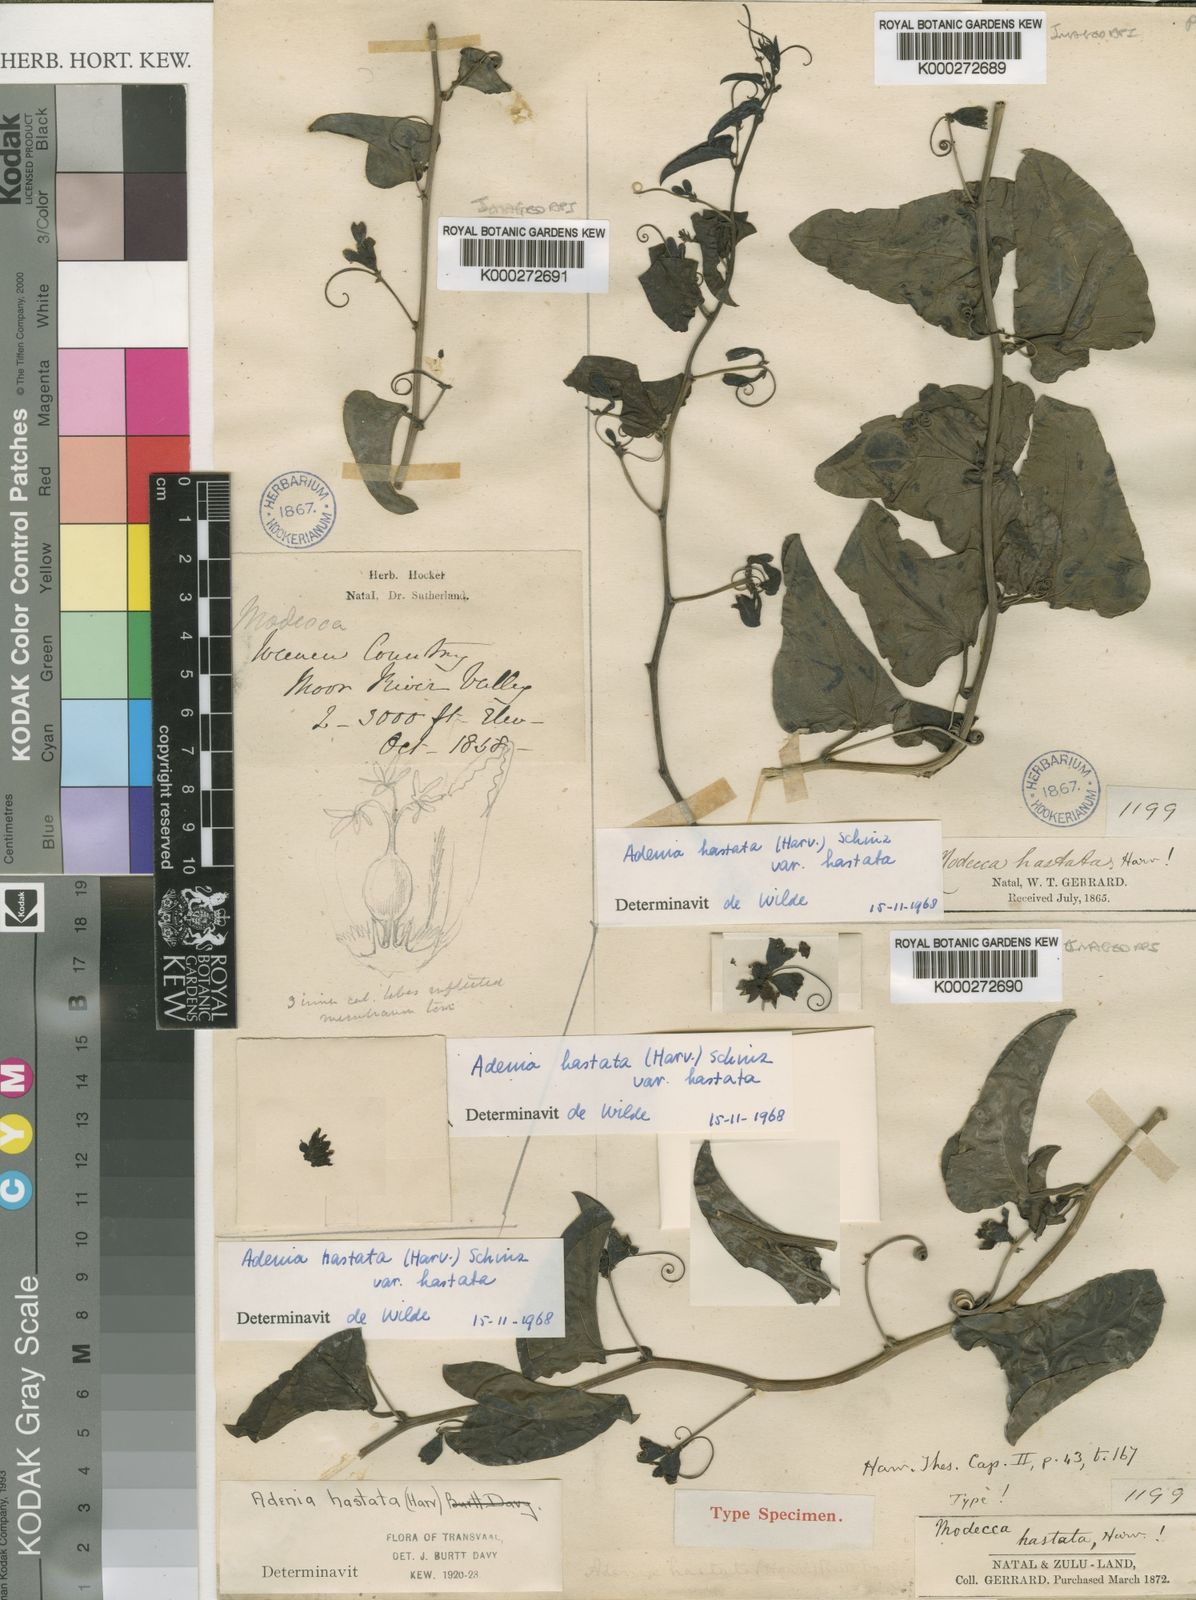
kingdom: Plantae
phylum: Tracheophyta
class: Magnoliopsida
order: Malpighiales
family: Passifloraceae
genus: Adenia
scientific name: Adenia hastata
